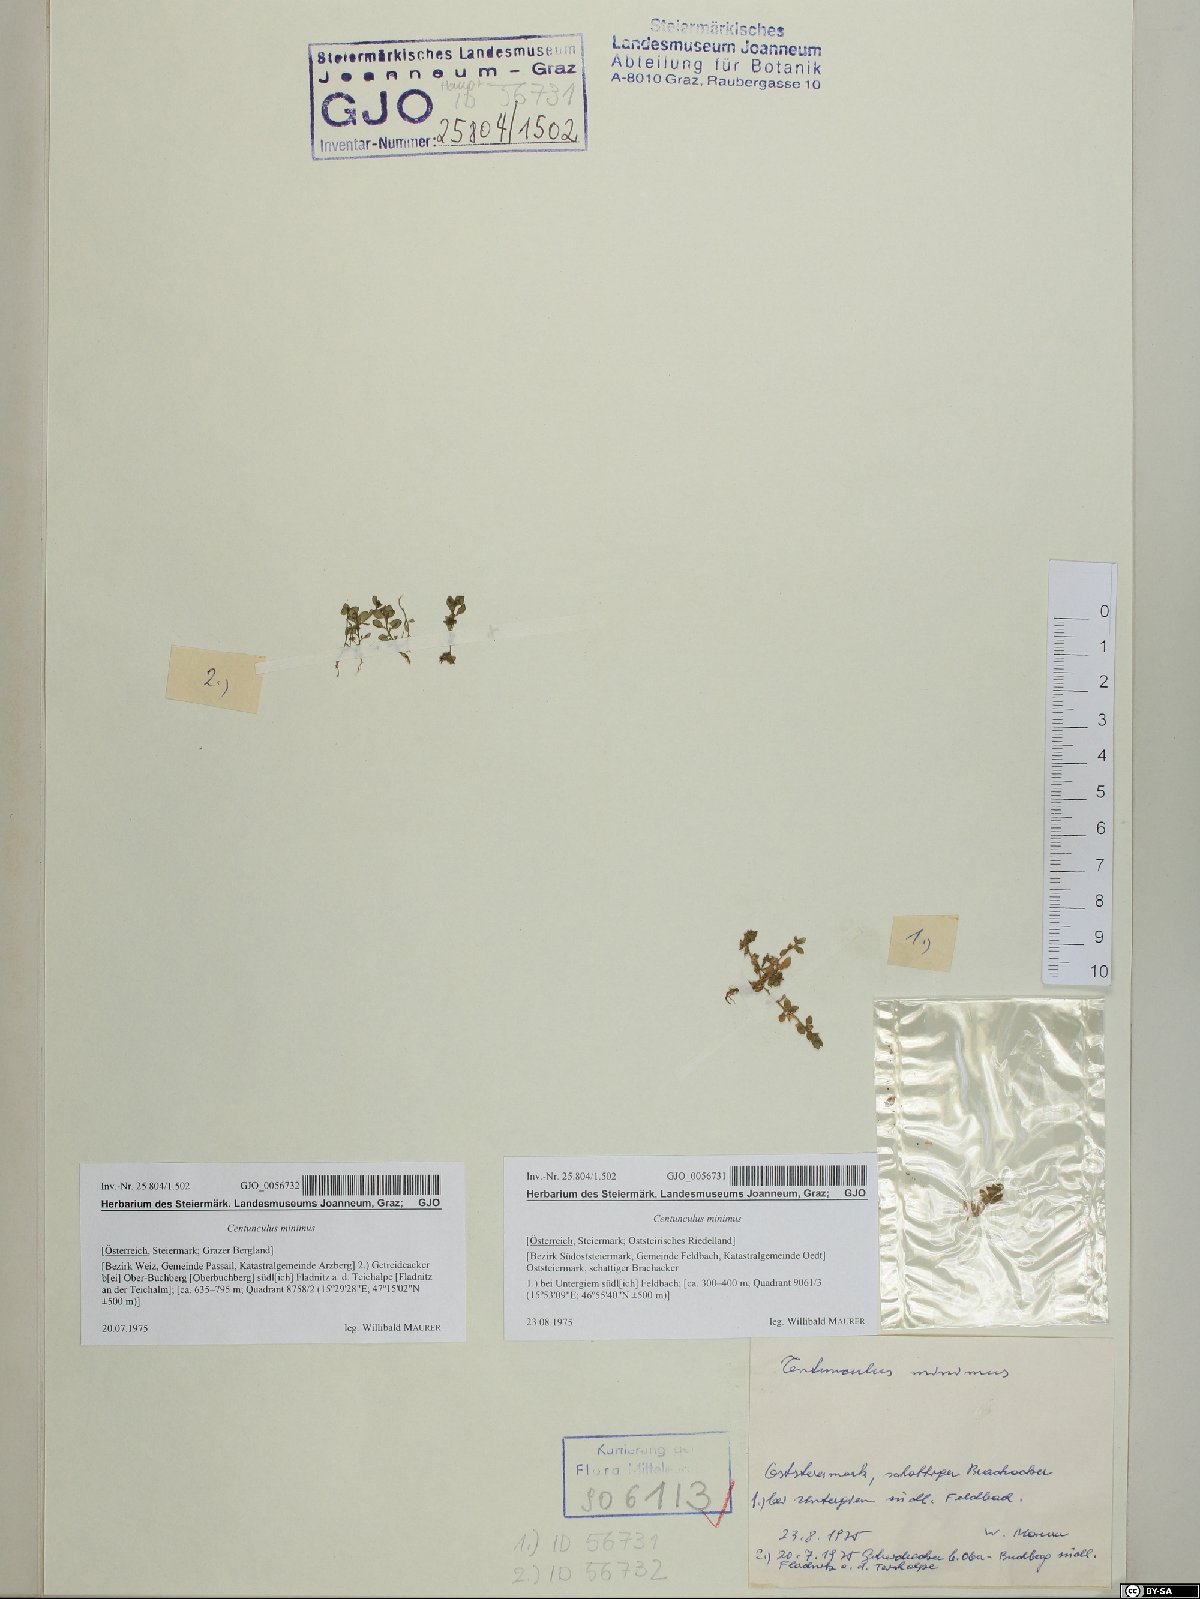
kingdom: Plantae
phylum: Tracheophyta
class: Magnoliopsida
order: Ericales
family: Primulaceae
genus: Lysimachia
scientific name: Lysimachia minima
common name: Chaffweed
